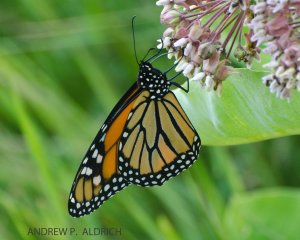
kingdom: Animalia
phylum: Arthropoda
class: Insecta
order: Lepidoptera
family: Nymphalidae
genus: Danaus
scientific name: Danaus plexippus
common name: Monarch
